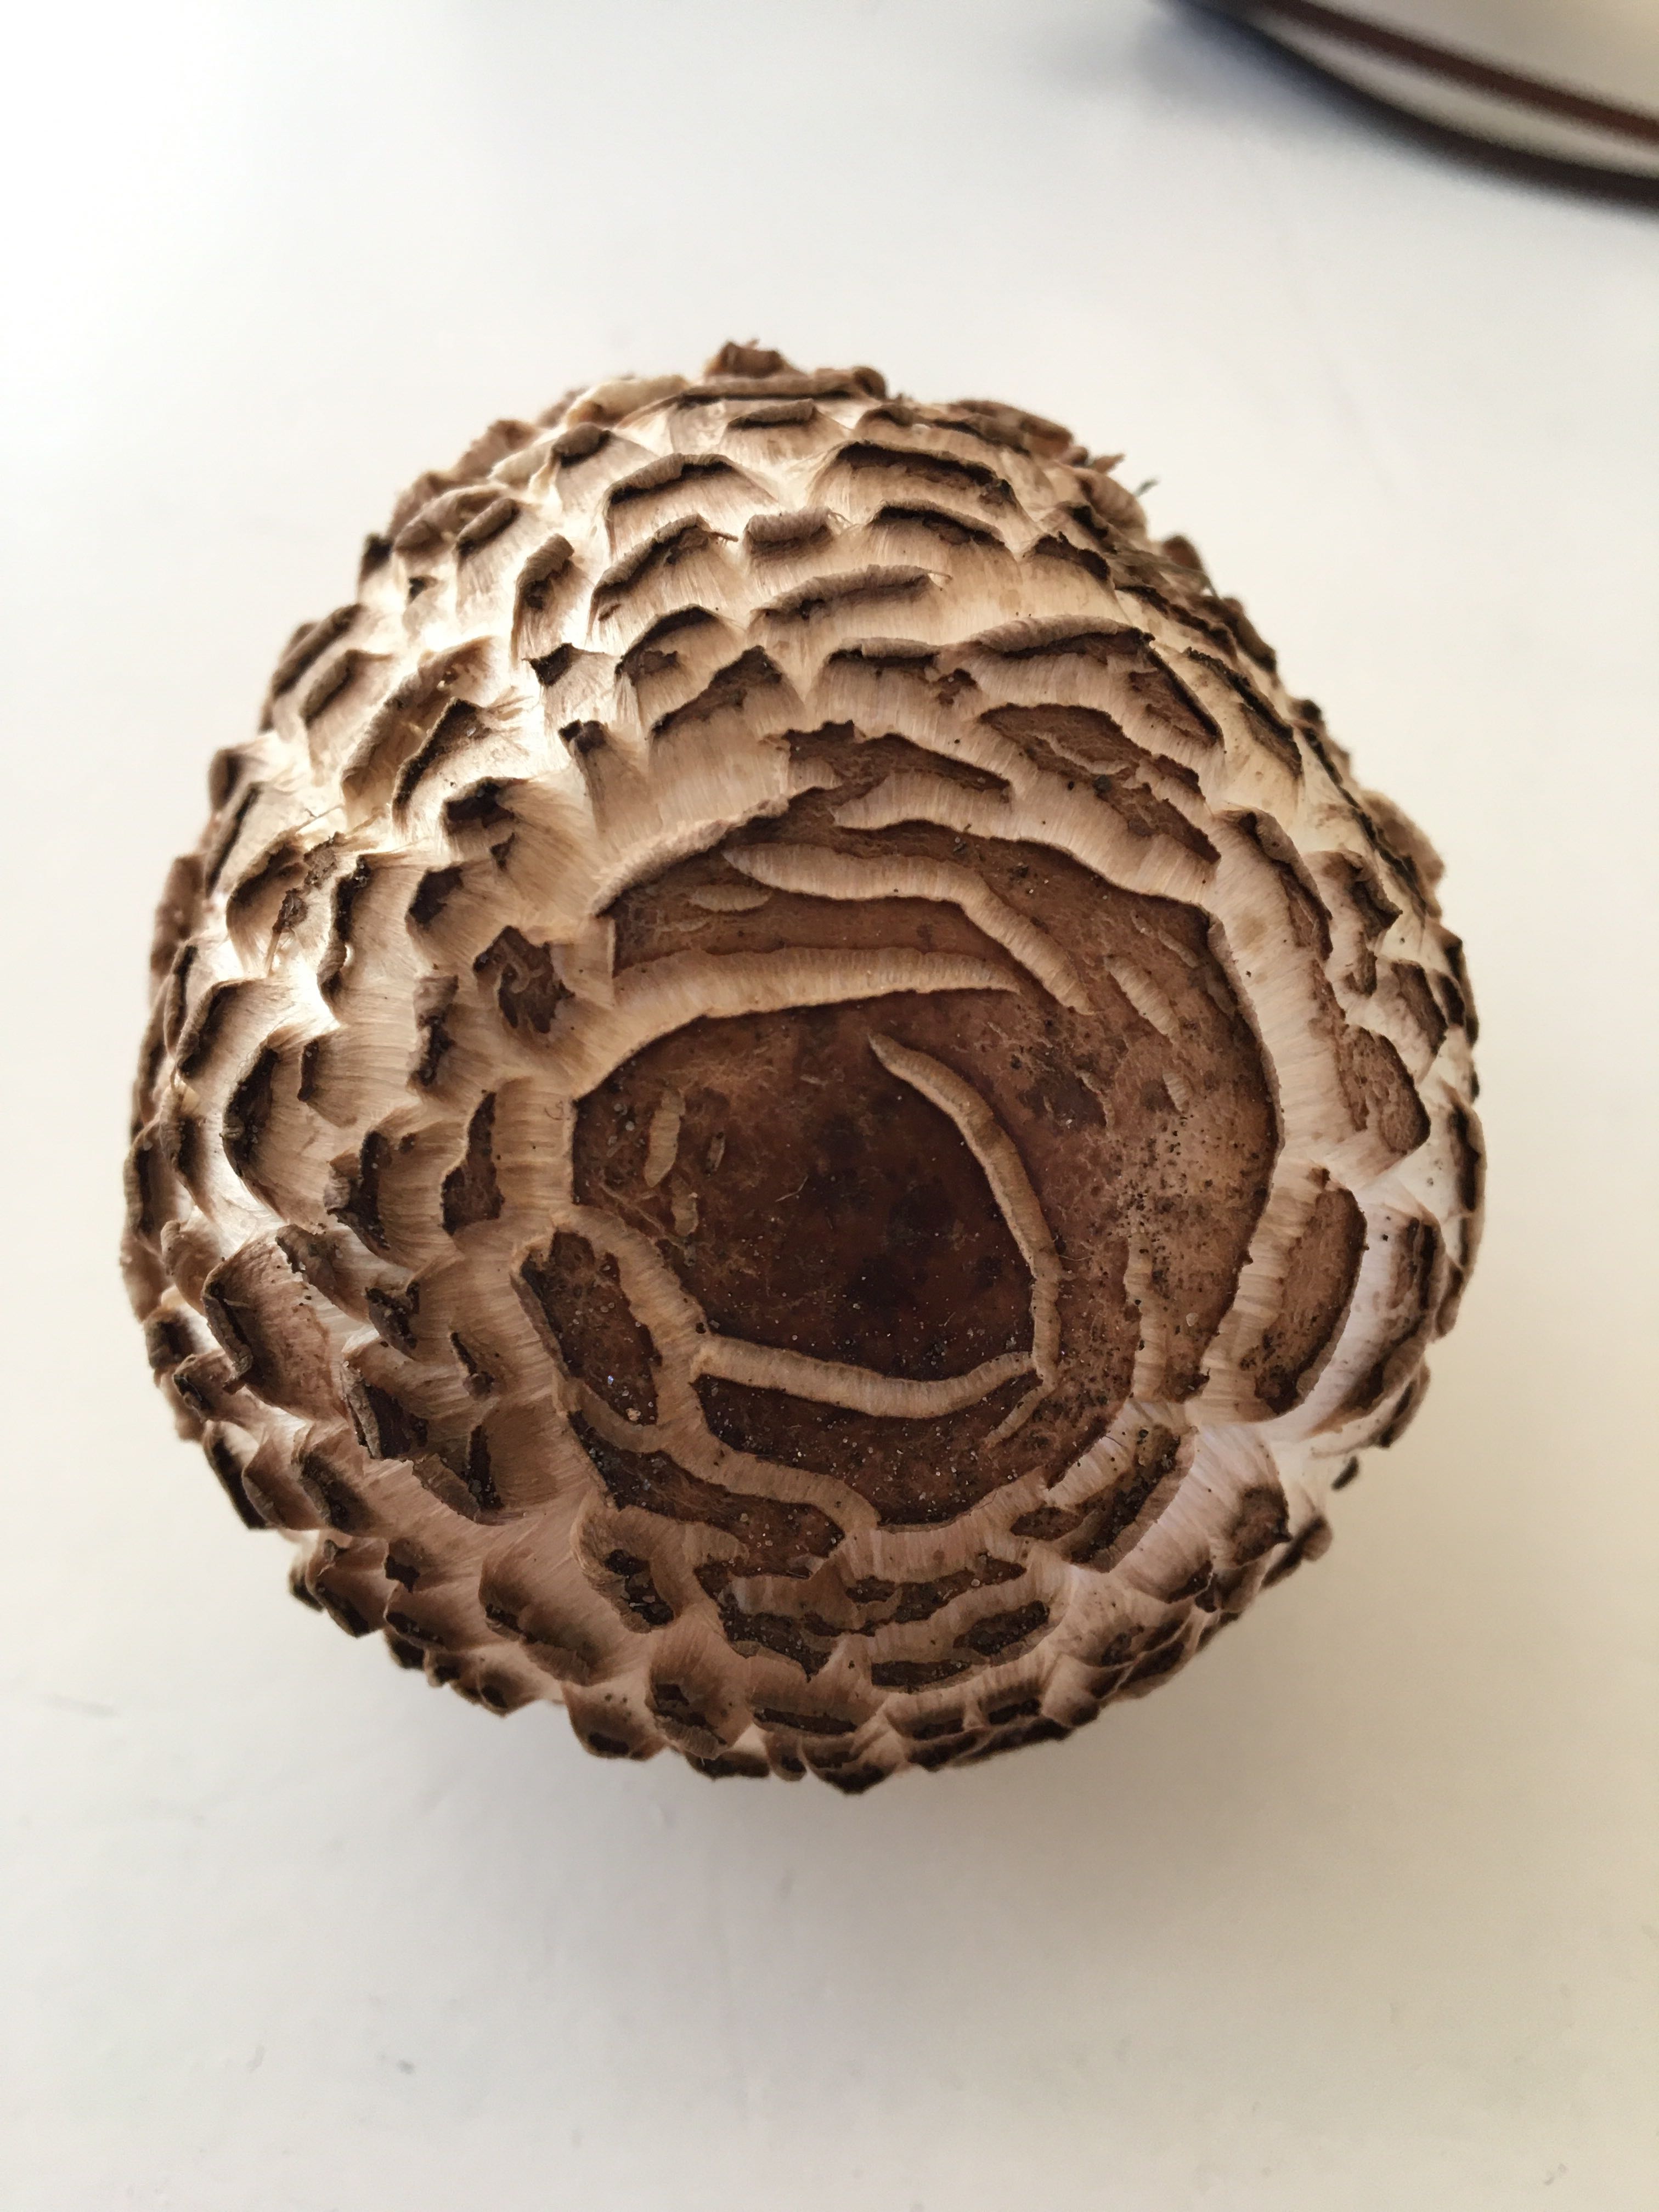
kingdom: Fungi
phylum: Basidiomycota
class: Agaricomycetes
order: Agaricales
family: Agaricaceae
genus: Chlorophyllum
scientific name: Chlorophyllum rhacodes
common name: ægte rabarberhat
